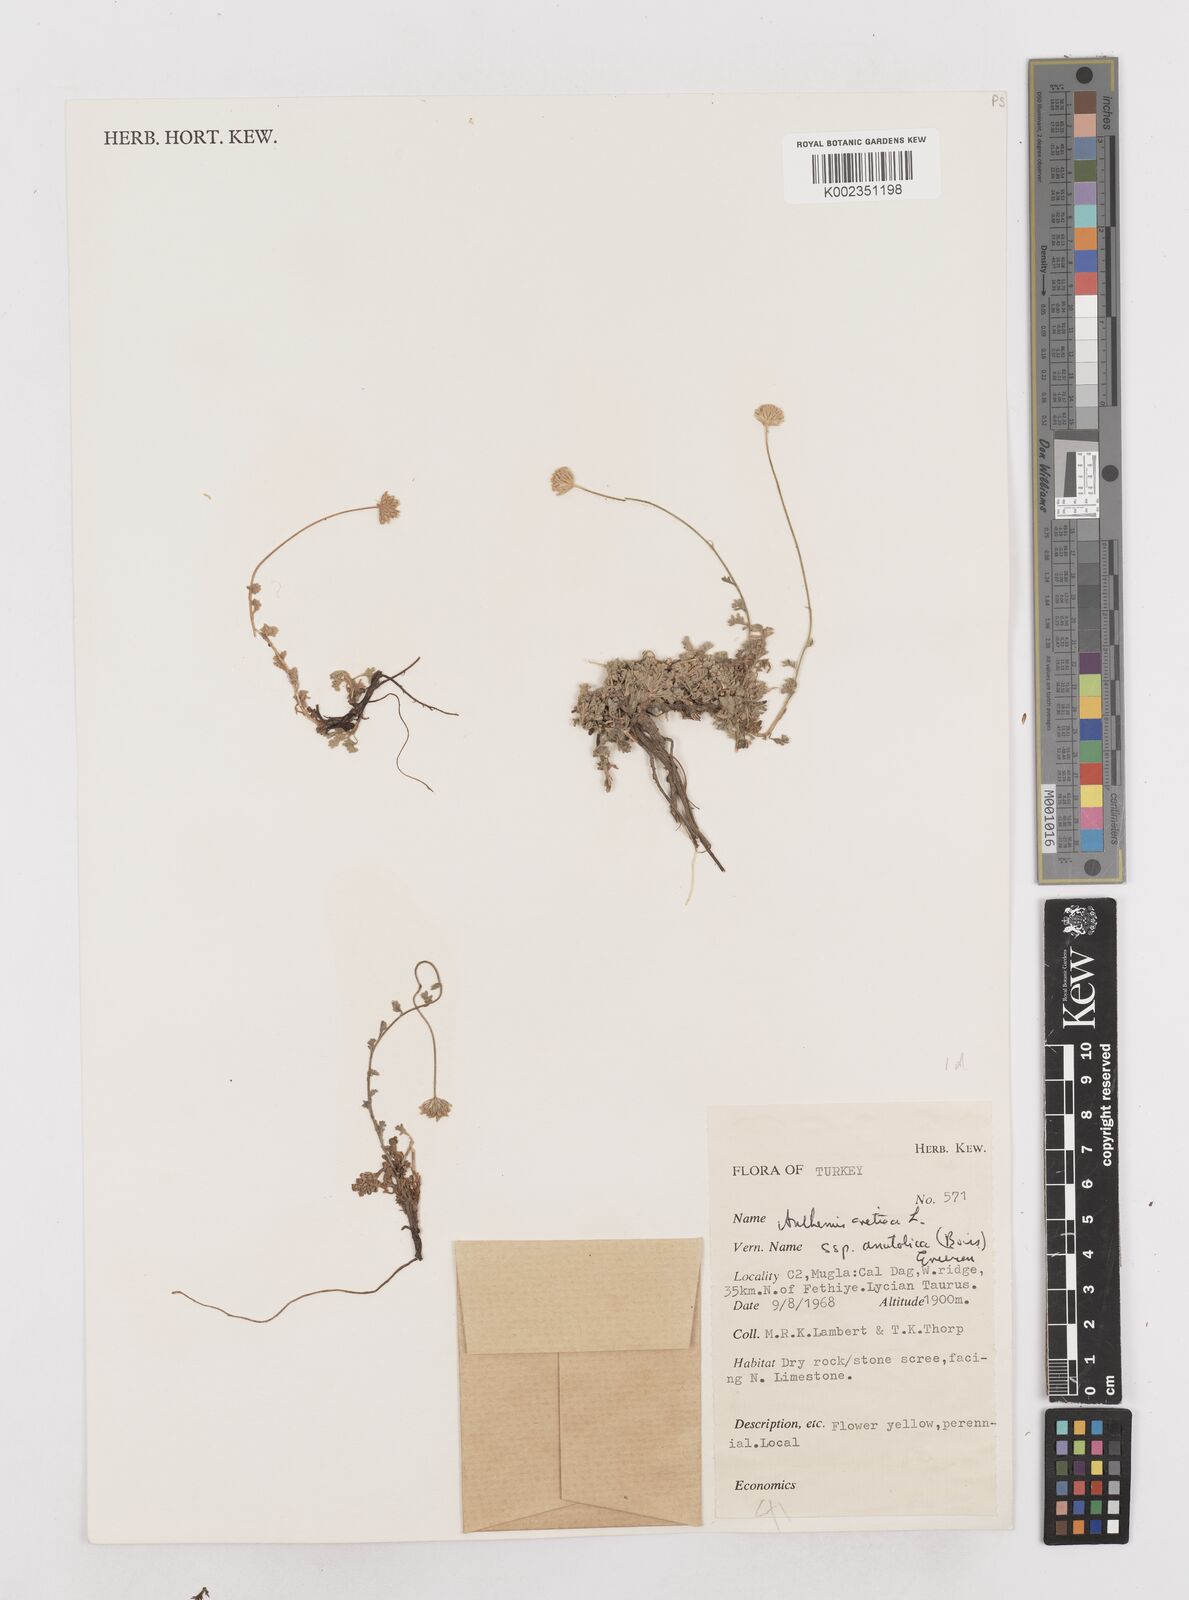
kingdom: Plantae
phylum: Tracheophyta
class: Magnoliopsida
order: Asterales
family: Asteraceae
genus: Anthemis
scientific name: Anthemis cretica
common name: Mountain dog-daisy
